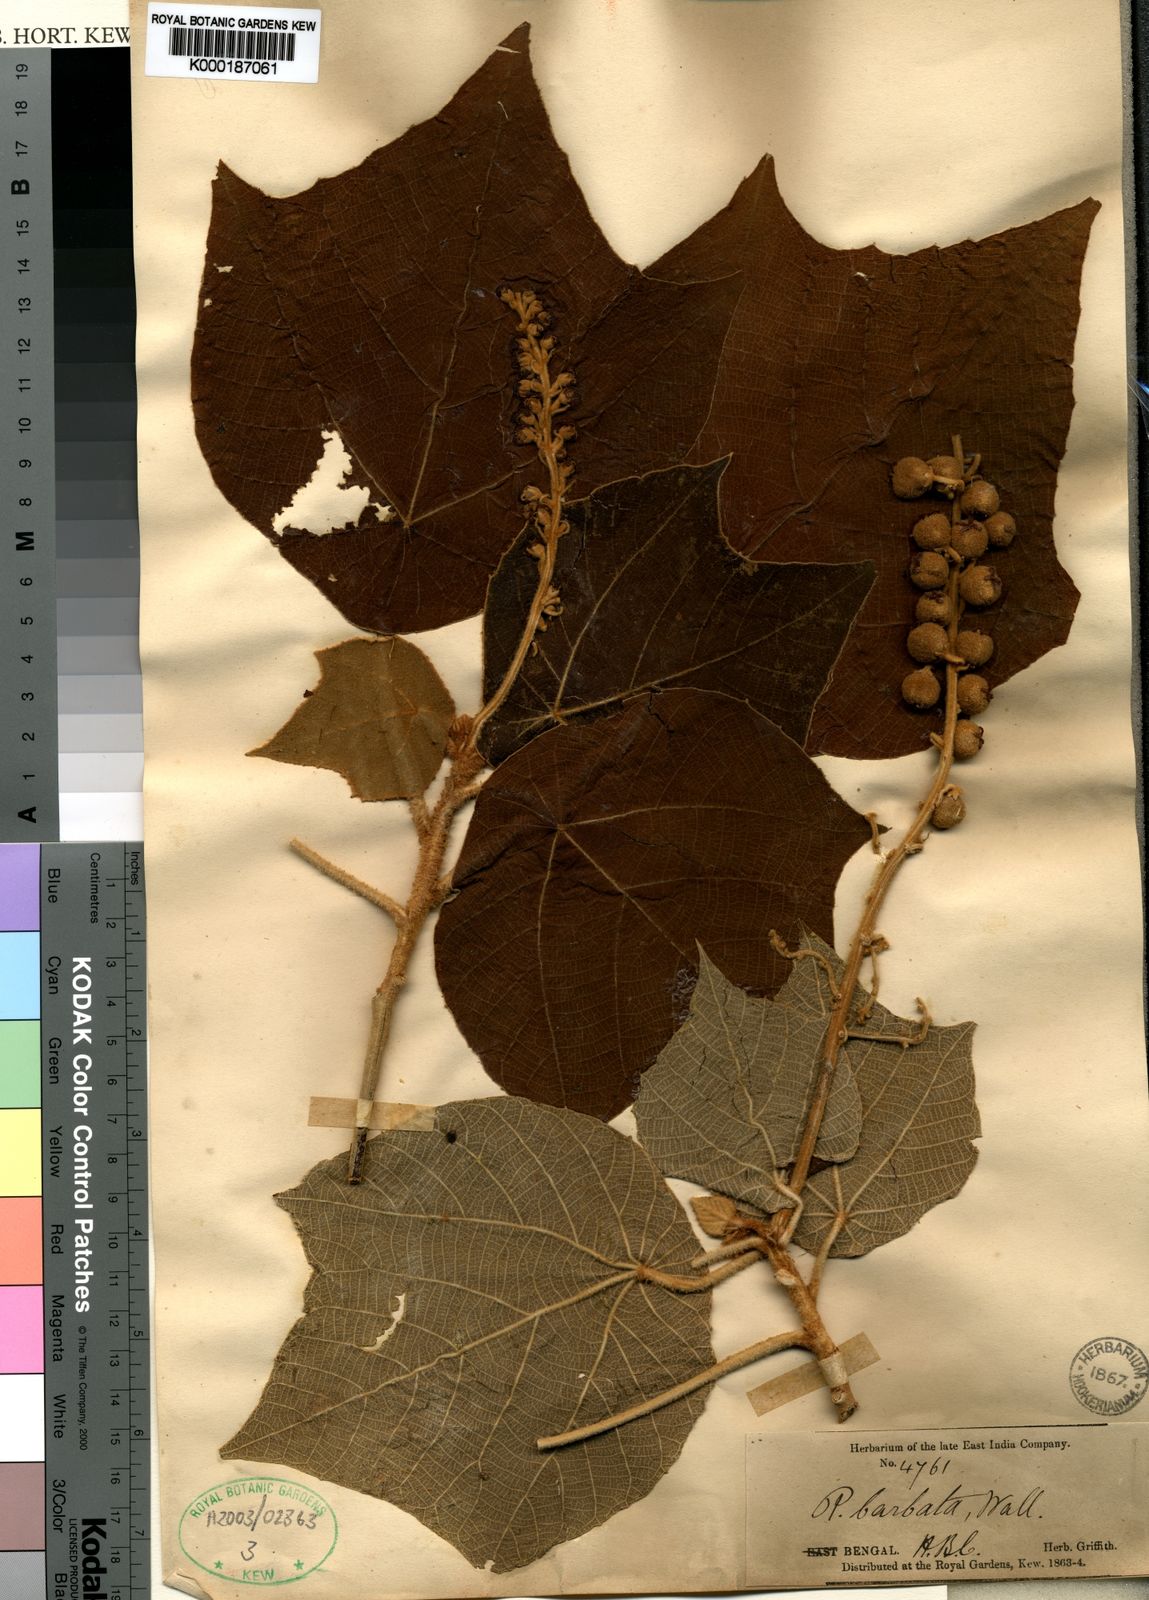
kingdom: Plantae
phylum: Tracheophyta
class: Magnoliopsida
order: Malpighiales
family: Euphorbiaceae
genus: Mallotus
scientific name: Mallotus barbatus
